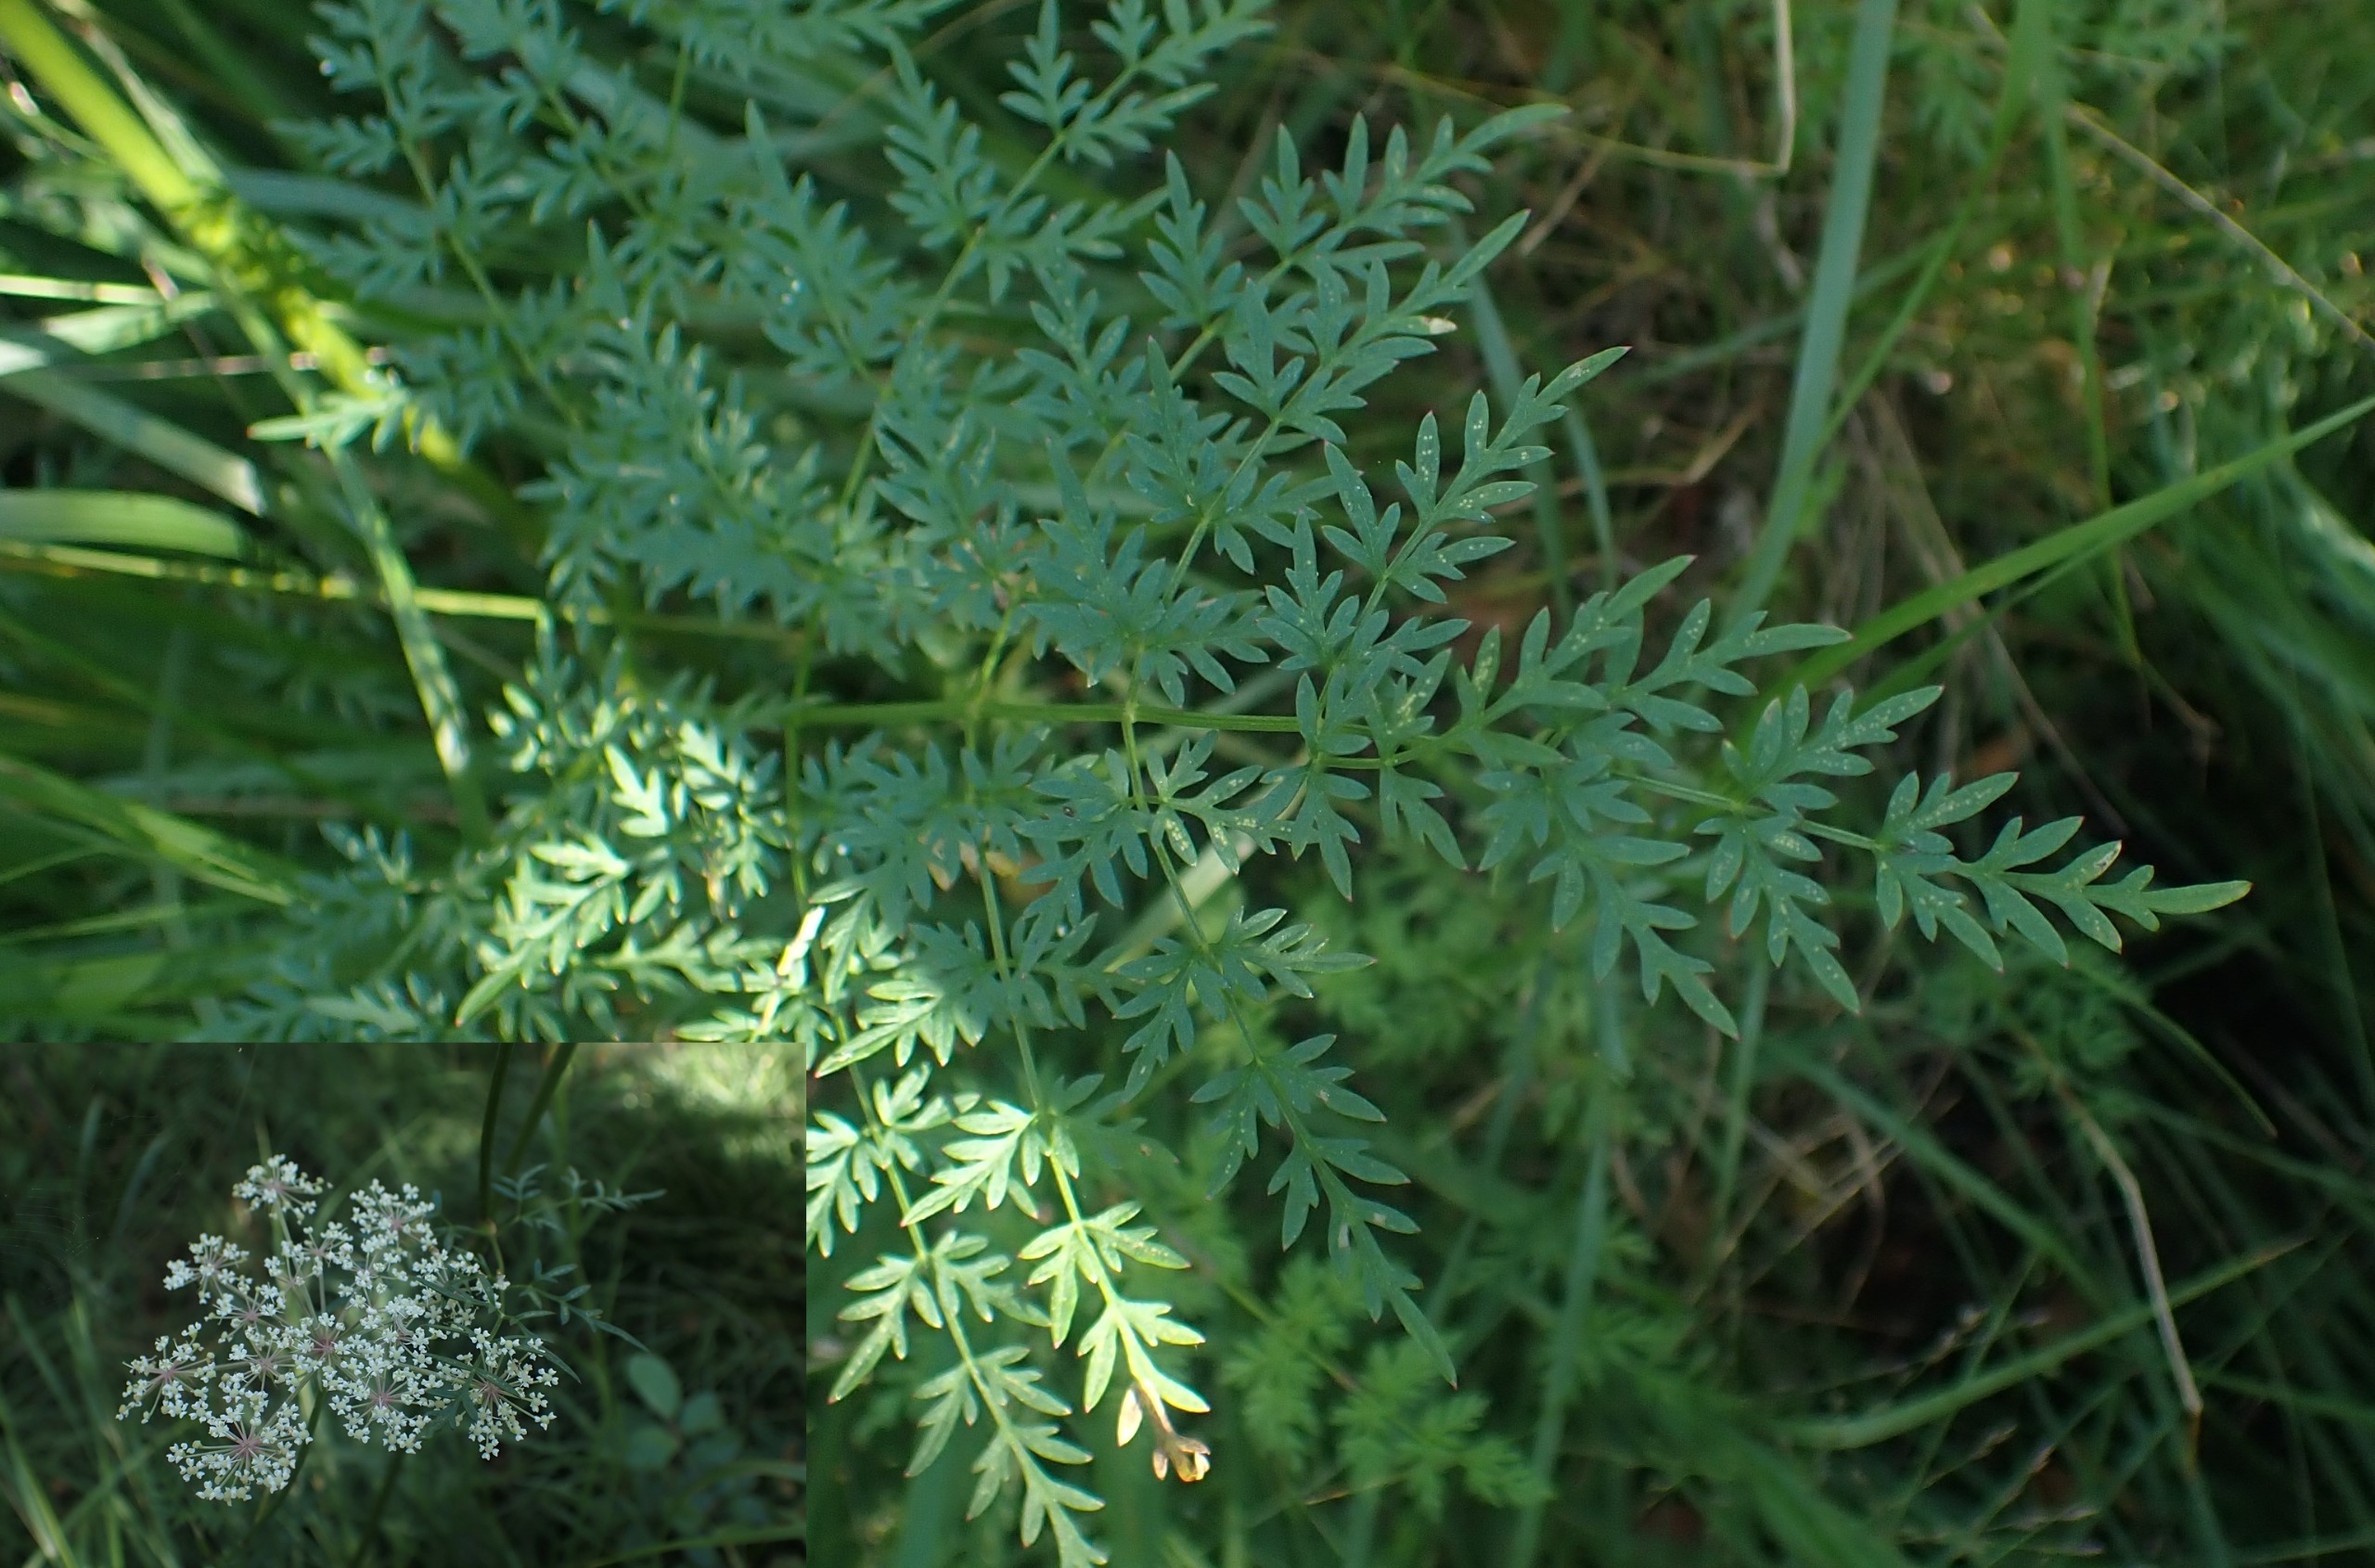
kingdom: Plantae
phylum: Tracheophyta
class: Magnoliopsida
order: Apiales
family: Apiaceae
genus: Thysselinum
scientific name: Thysselinum palustre
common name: Kær-svovlrod
